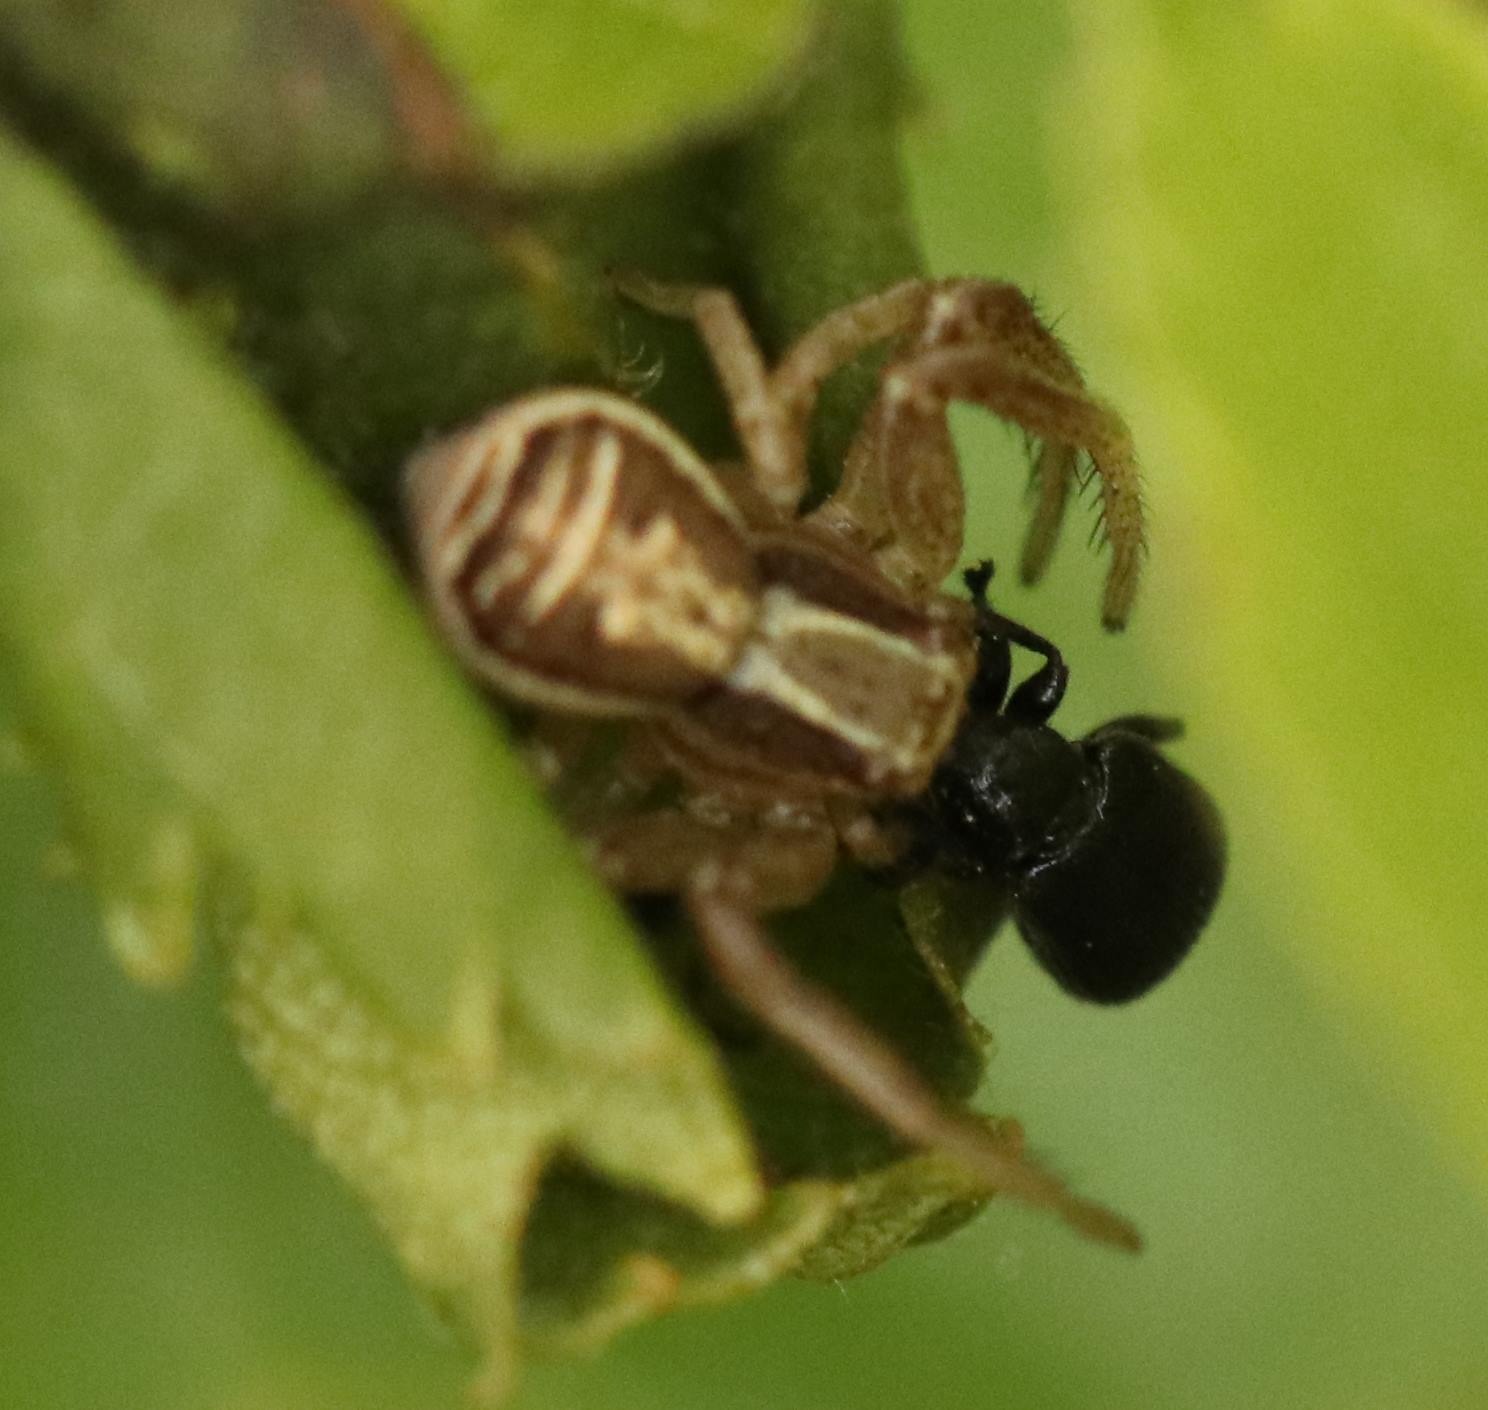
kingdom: Animalia
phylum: Arthropoda
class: Arachnida
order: Araneae
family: Thomisidae
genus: Xysticus
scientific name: Xysticus ulmi
